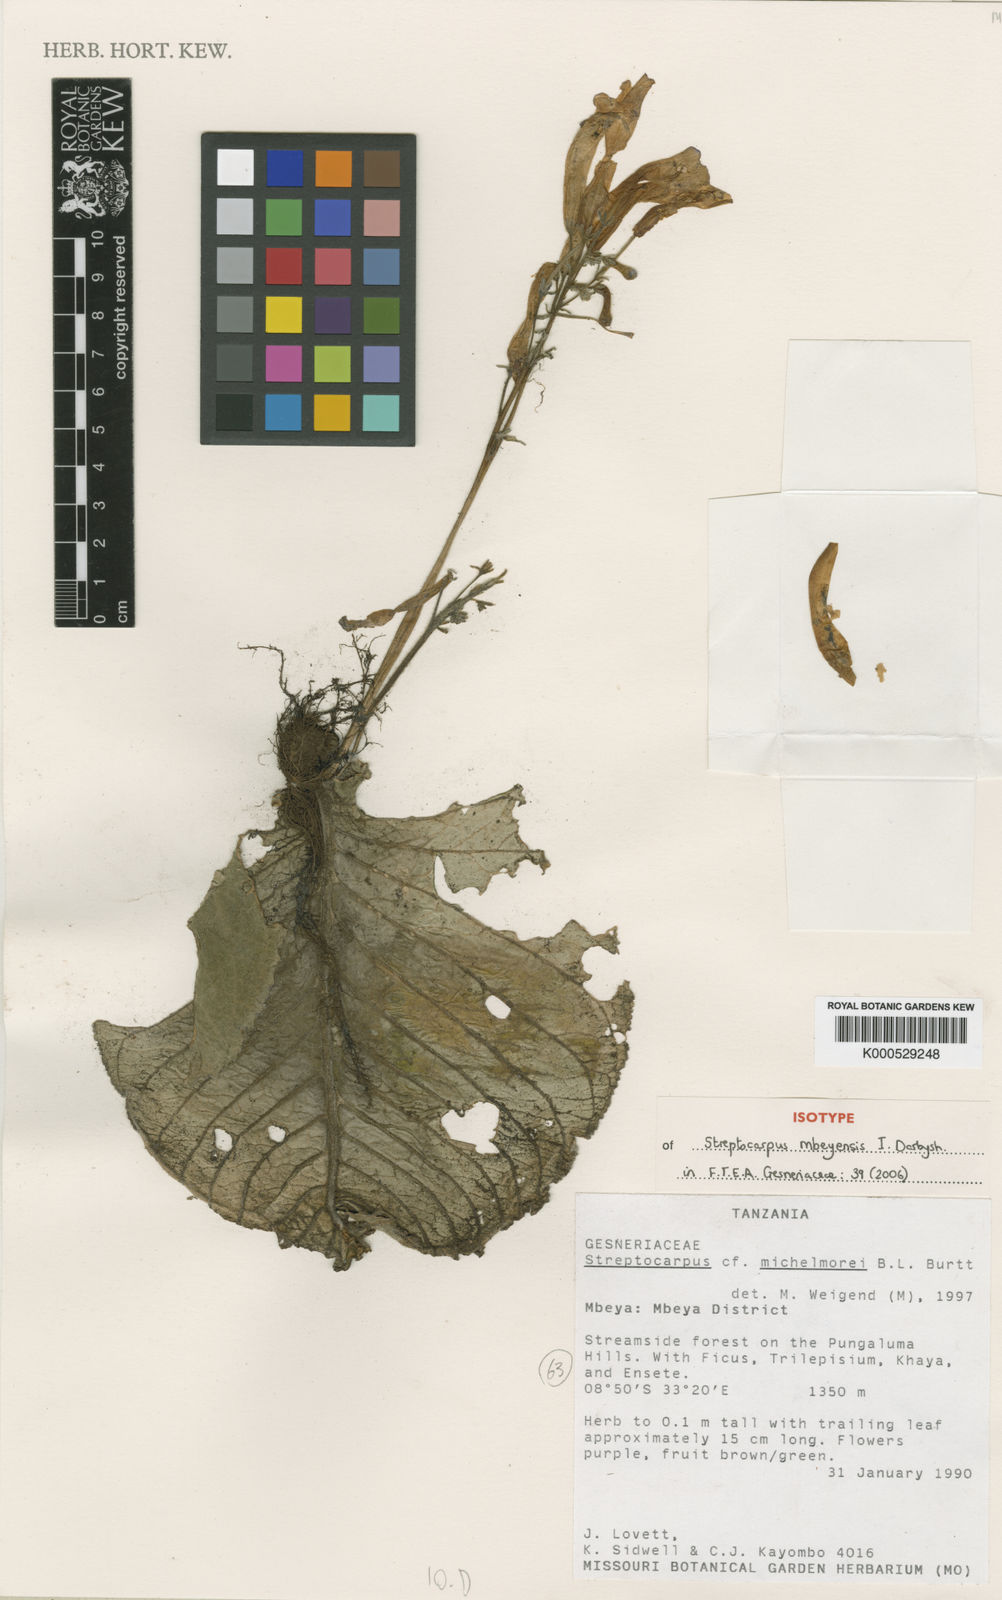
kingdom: Plantae
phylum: Tracheophyta
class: Magnoliopsida
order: Lamiales
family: Gesneriaceae
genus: Streptocarpus
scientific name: Streptocarpus mbeyensis
